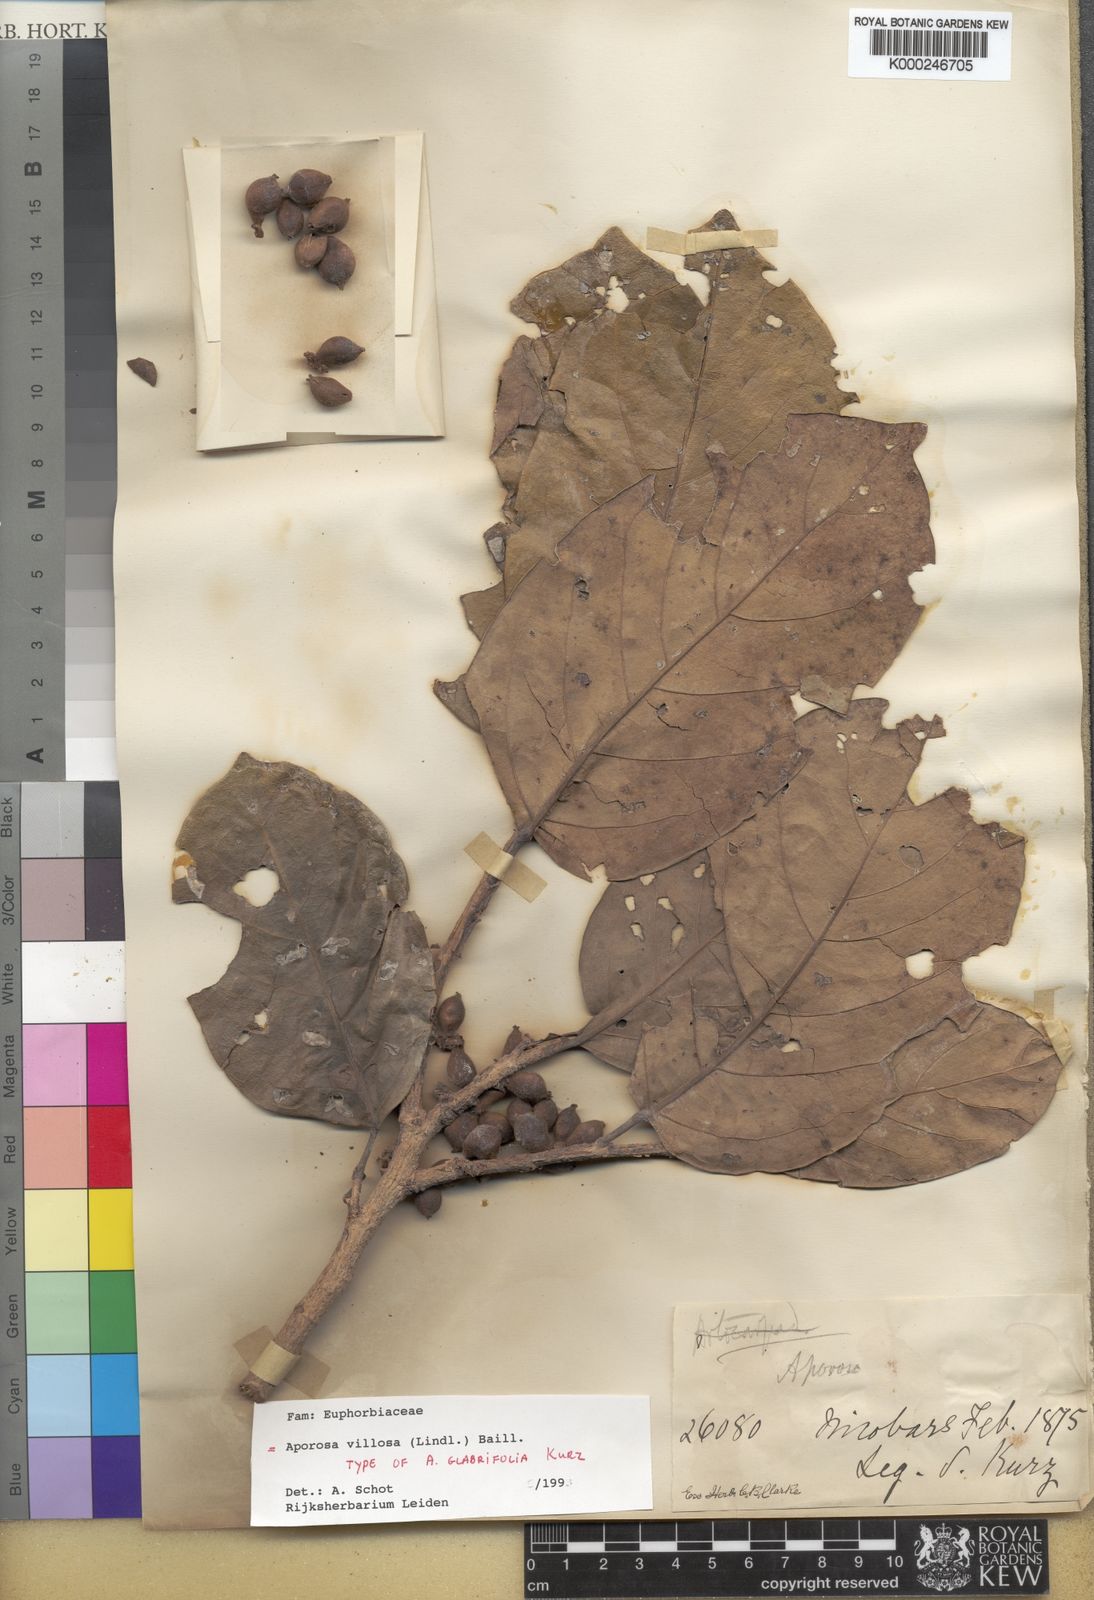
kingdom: Plantae
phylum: Tracheophyta
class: Magnoliopsida
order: Malpighiales
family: Phyllanthaceae
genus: Aporosa
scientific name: Aporosa villosa
